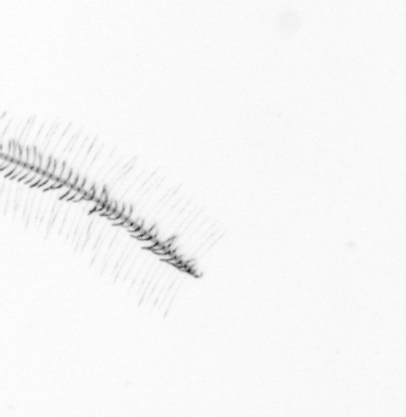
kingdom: Chromista
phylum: Ochrophyta
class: Bacillariophyceae
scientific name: Bacillariophyceae
